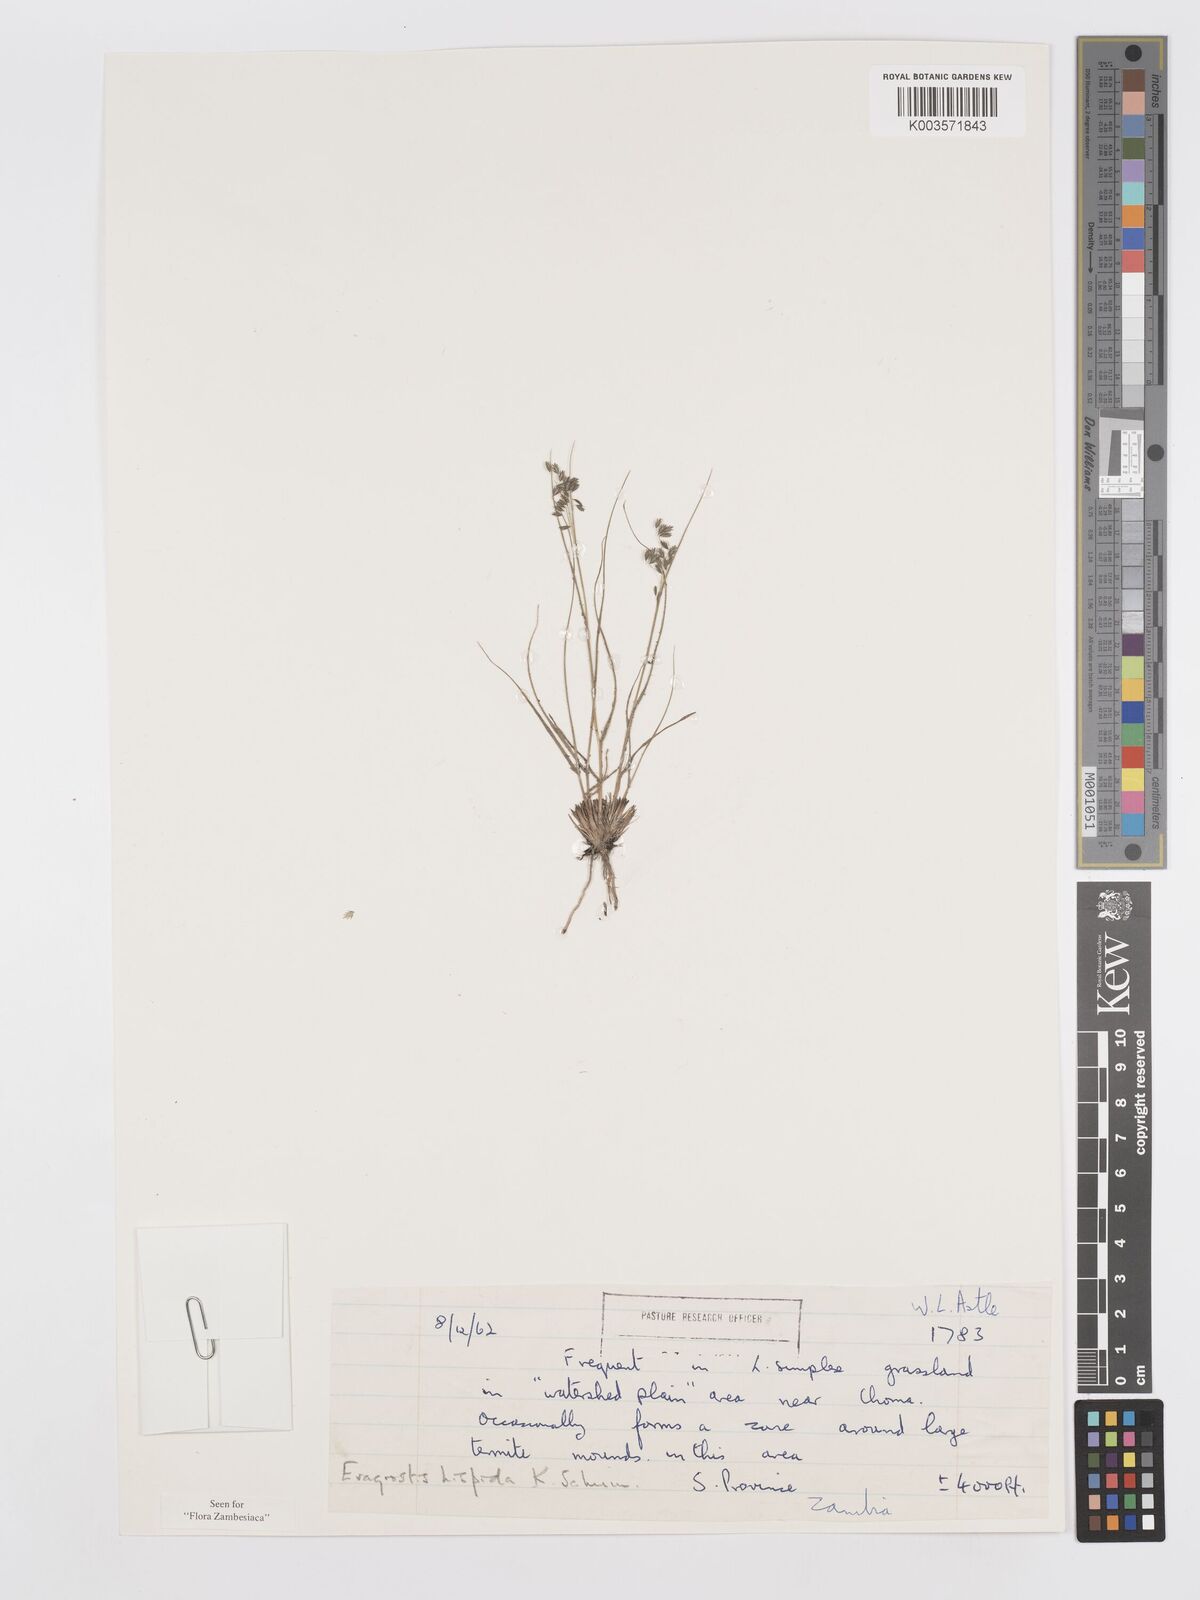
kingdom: Plantae
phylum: Tracheophyta
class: Liliopsida
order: Poales
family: Poaceae
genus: Eragrostis
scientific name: Eragrostis hispida
